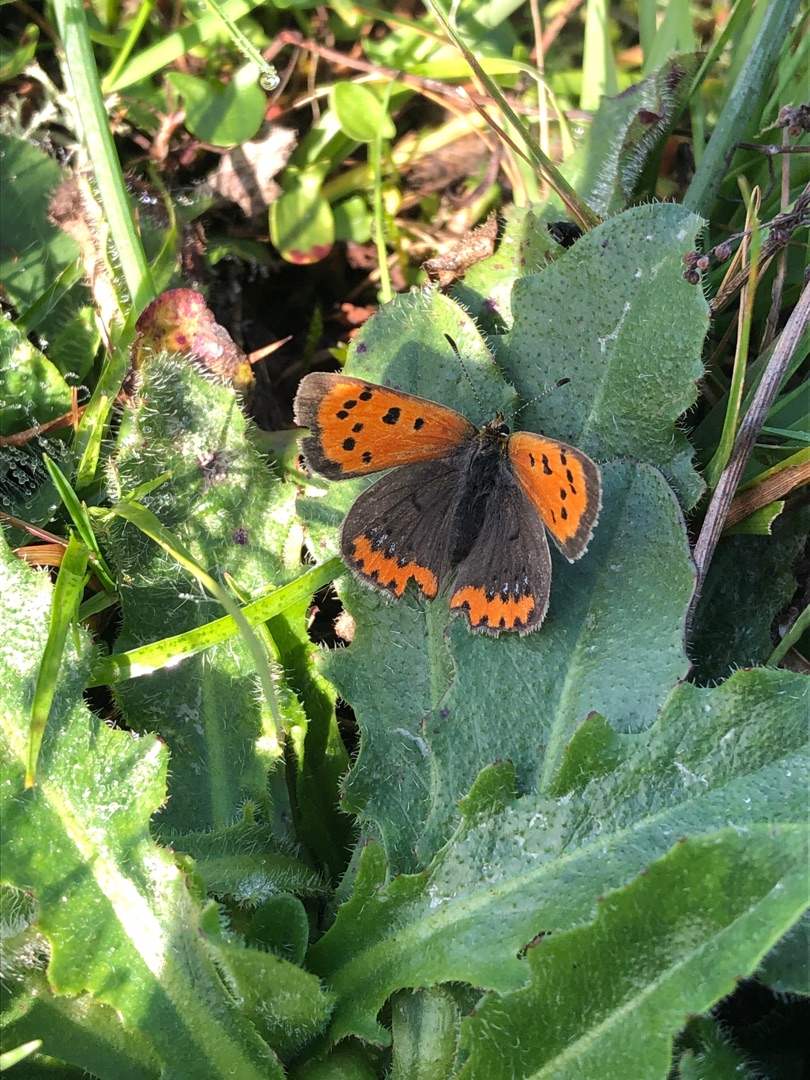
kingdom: Animalia
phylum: Arthropoda
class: Insecta
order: Lepidoptera
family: Lycaenidae
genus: Lycaena
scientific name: Lycaena phlaeas
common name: Lille ildfugl
